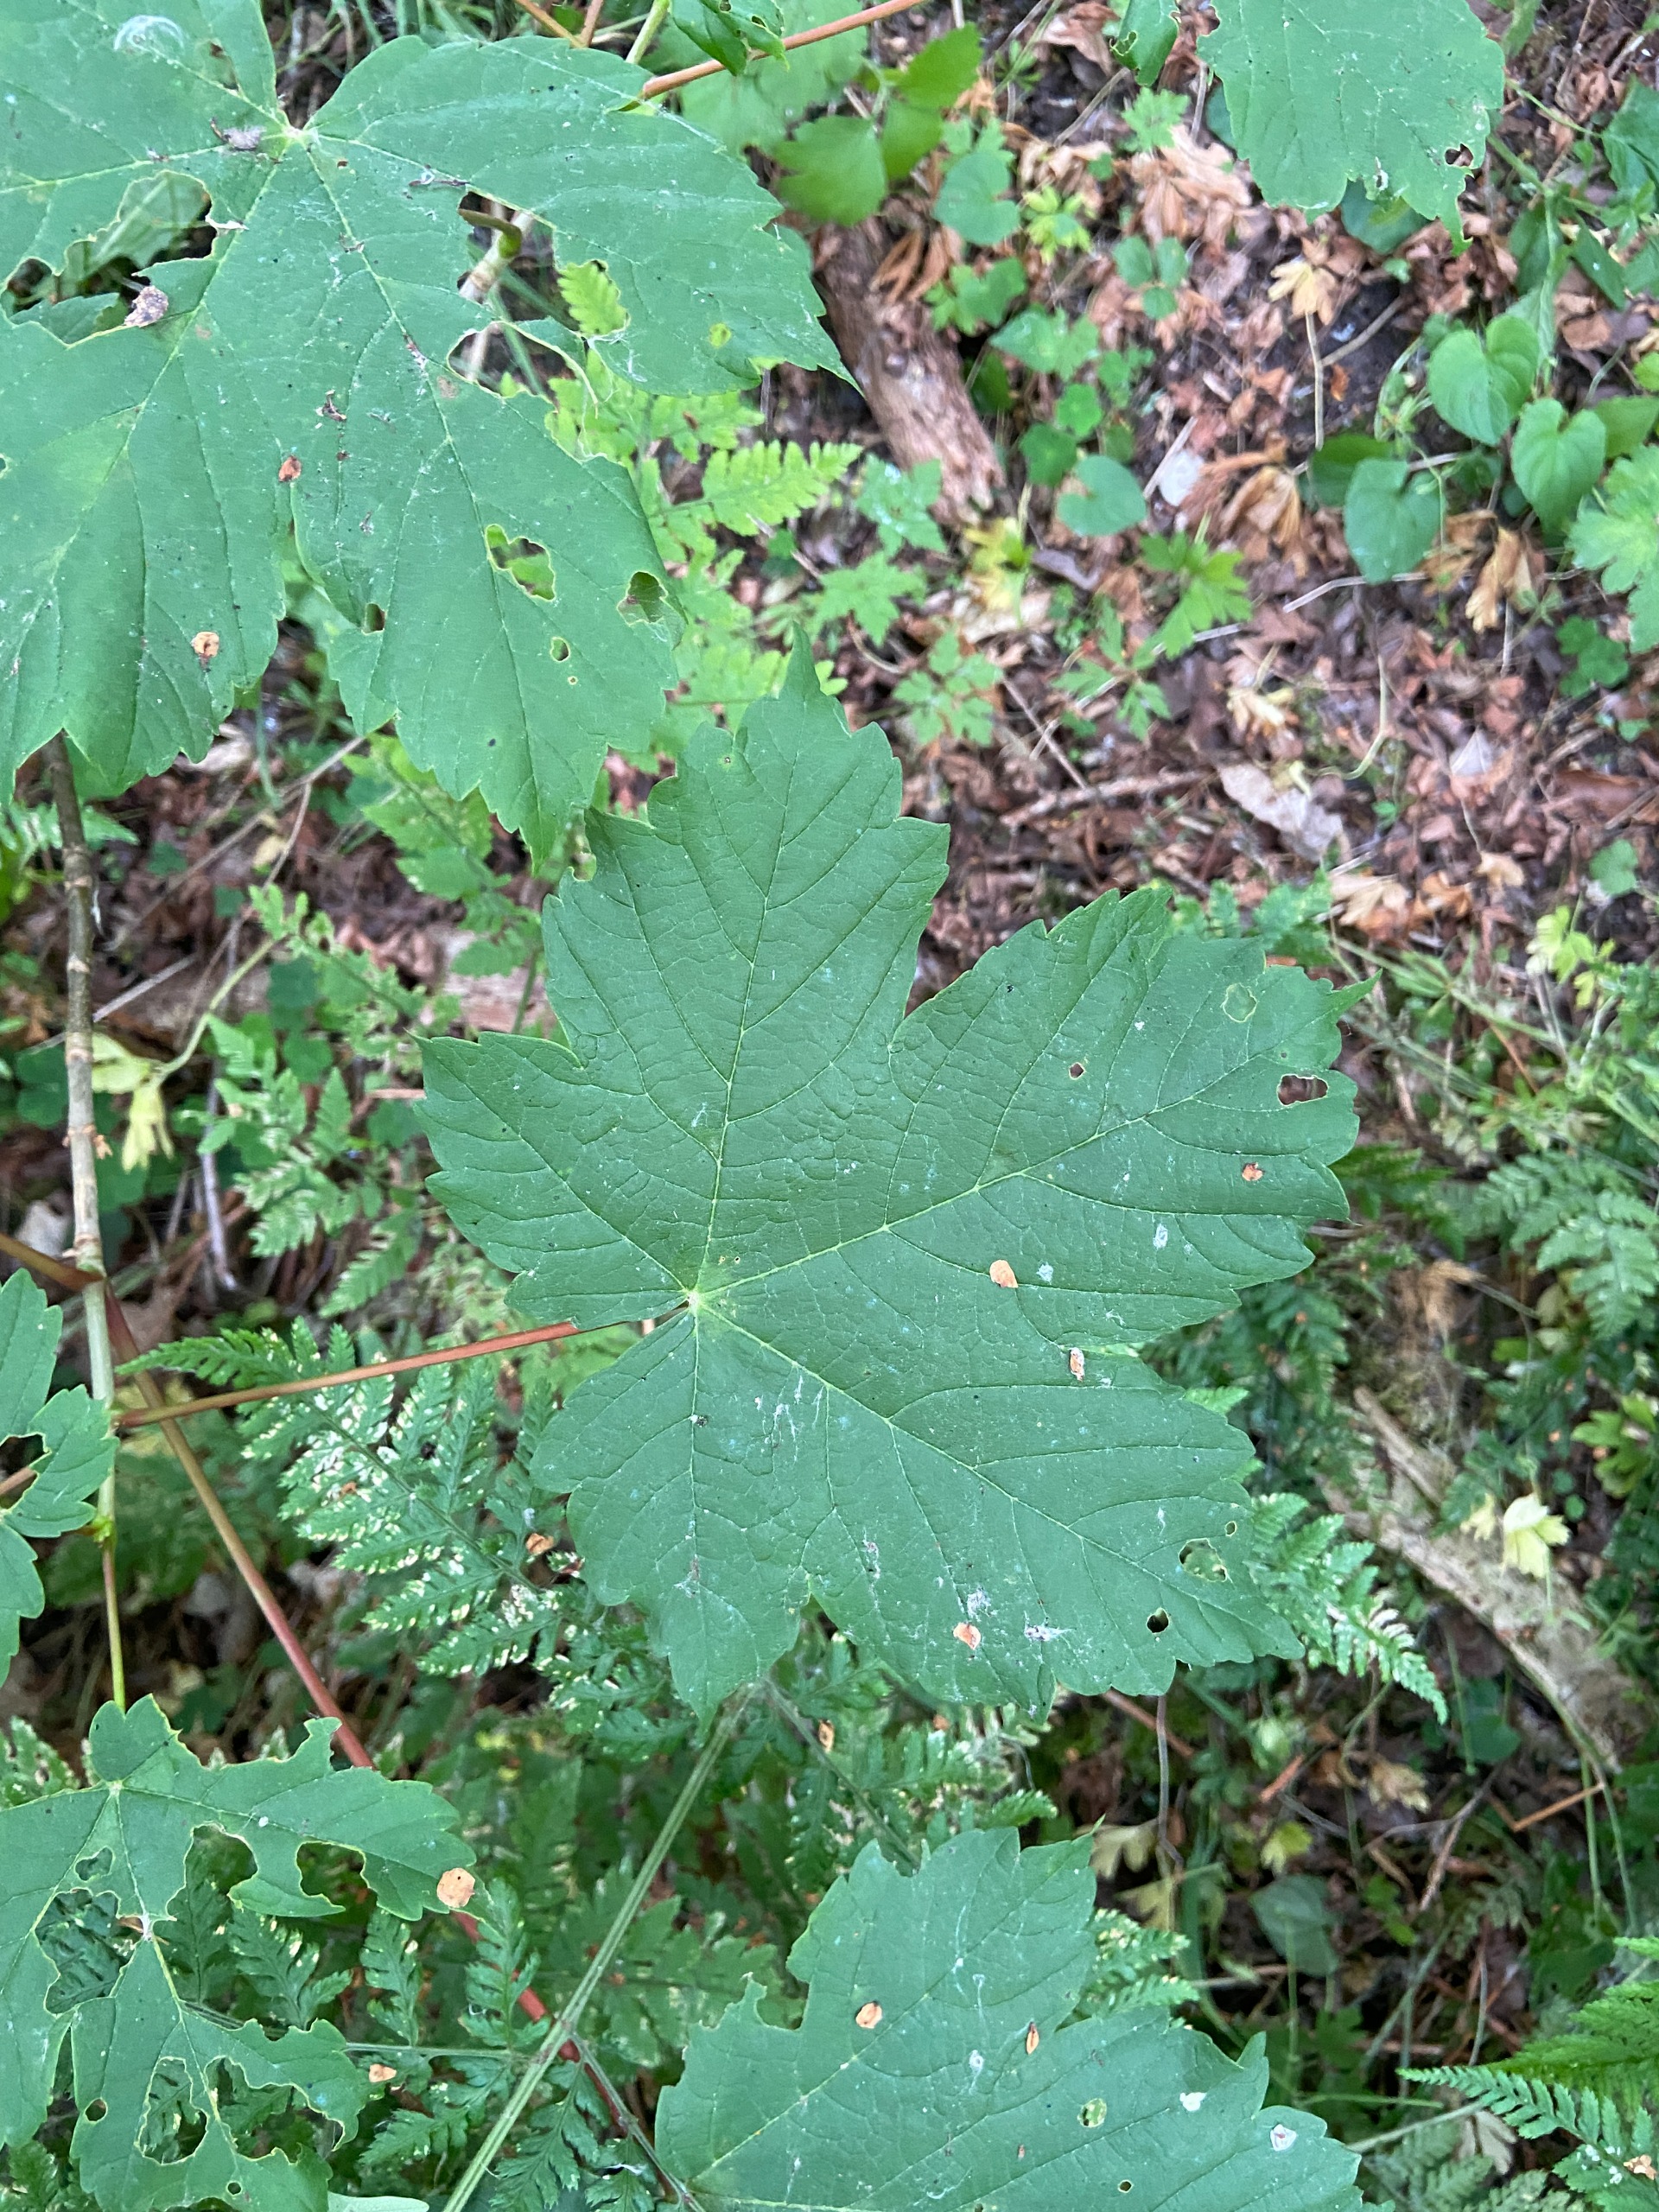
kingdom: Plantae
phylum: Tracheophyta
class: Magnoliopsida
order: Sapindales
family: Sapindaceae
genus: Acer
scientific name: Acer pseudoplatanus
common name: Ahorn
